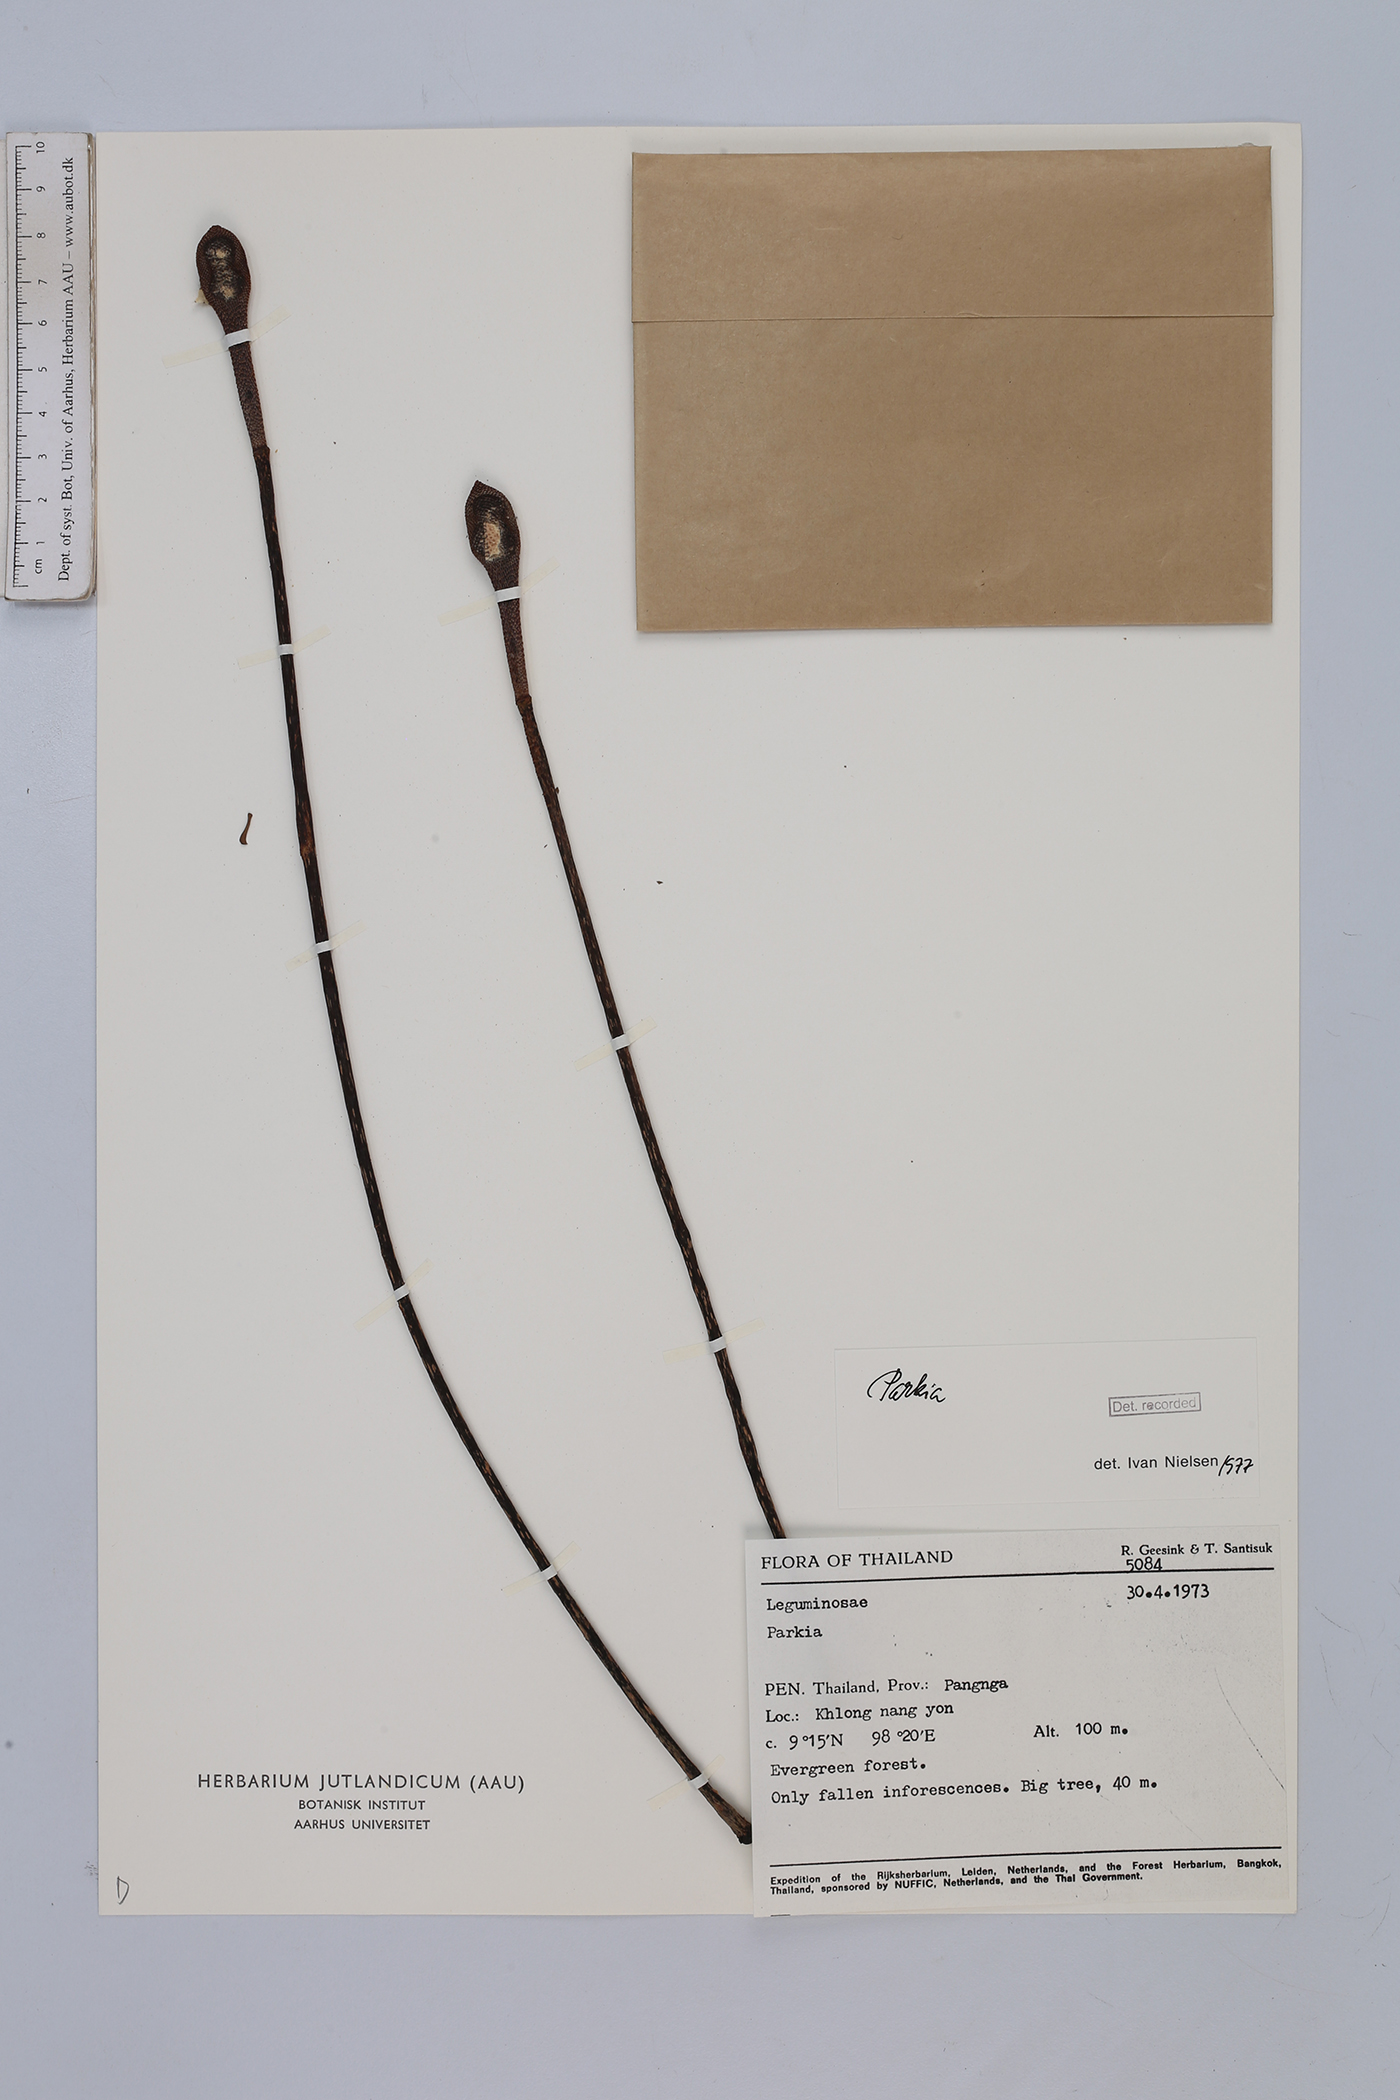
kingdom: Plantae
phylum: Tracheophyta
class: Magnoliopsida
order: Fabales
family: Fabaceae
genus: Parkia
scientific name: Parkia
